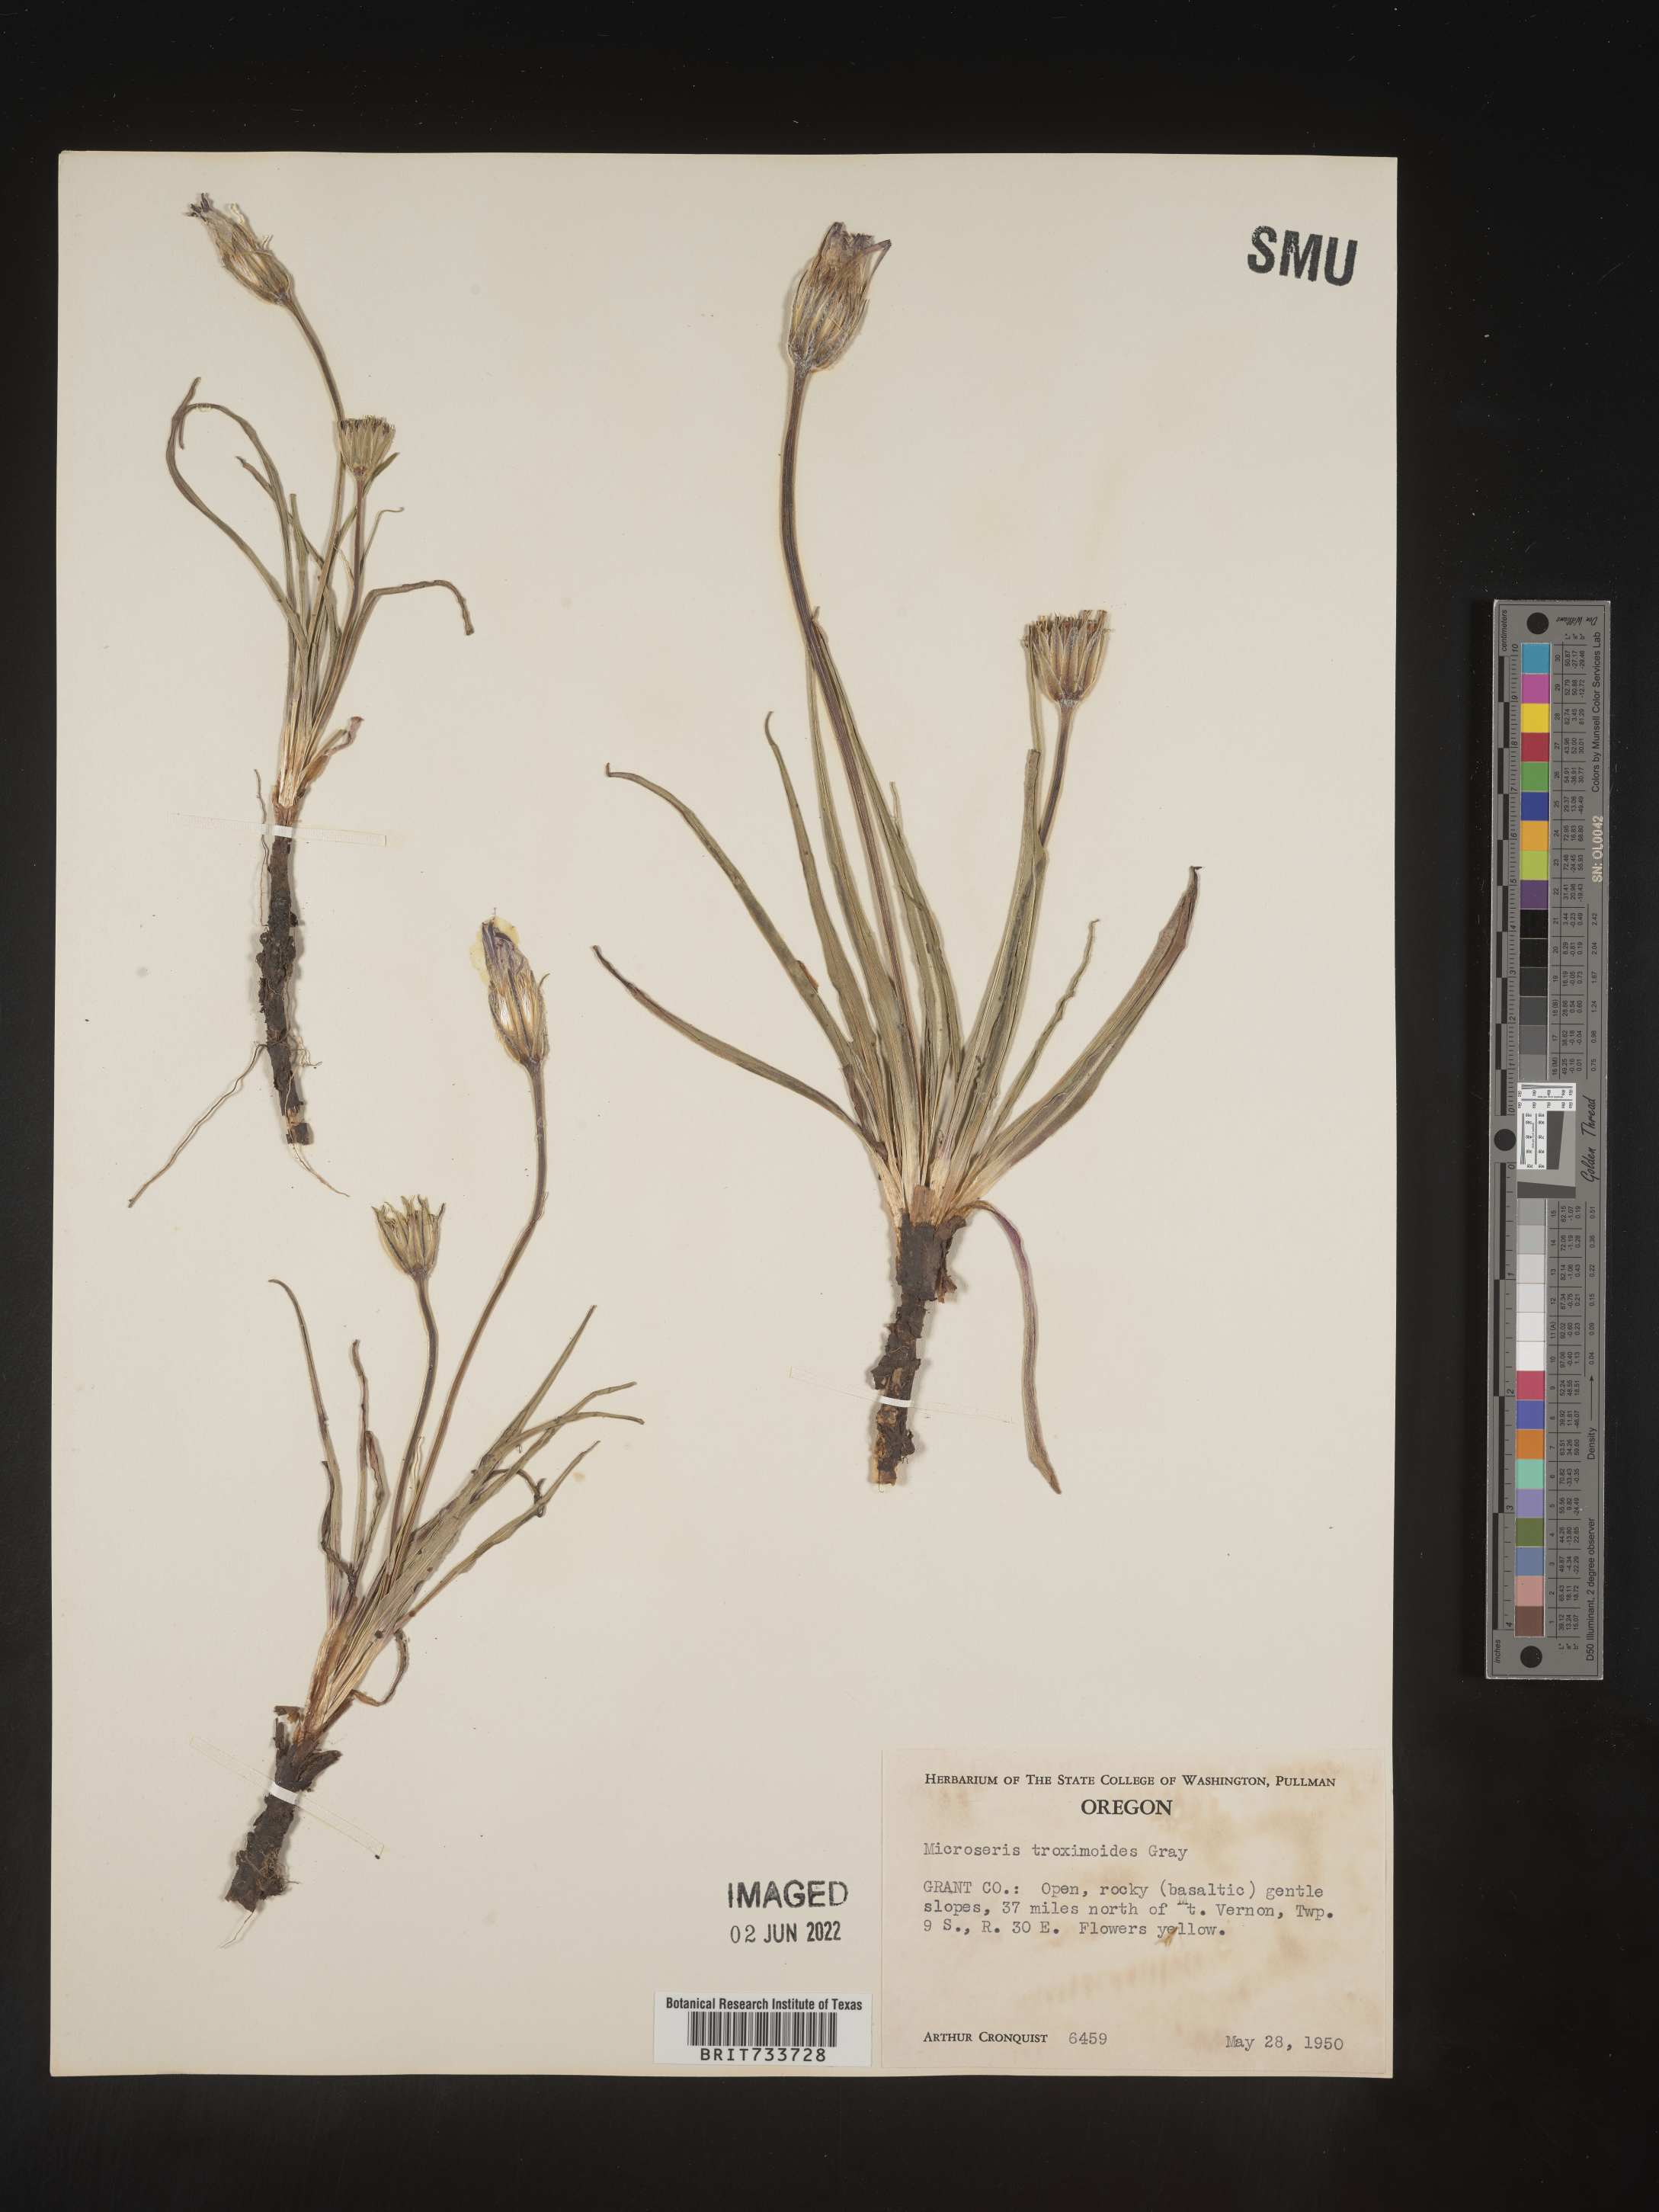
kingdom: Plantae
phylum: Tracheophyta
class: Magnoliopsida
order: Asterales
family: Asteraceae
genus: Microseris
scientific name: Microseris
